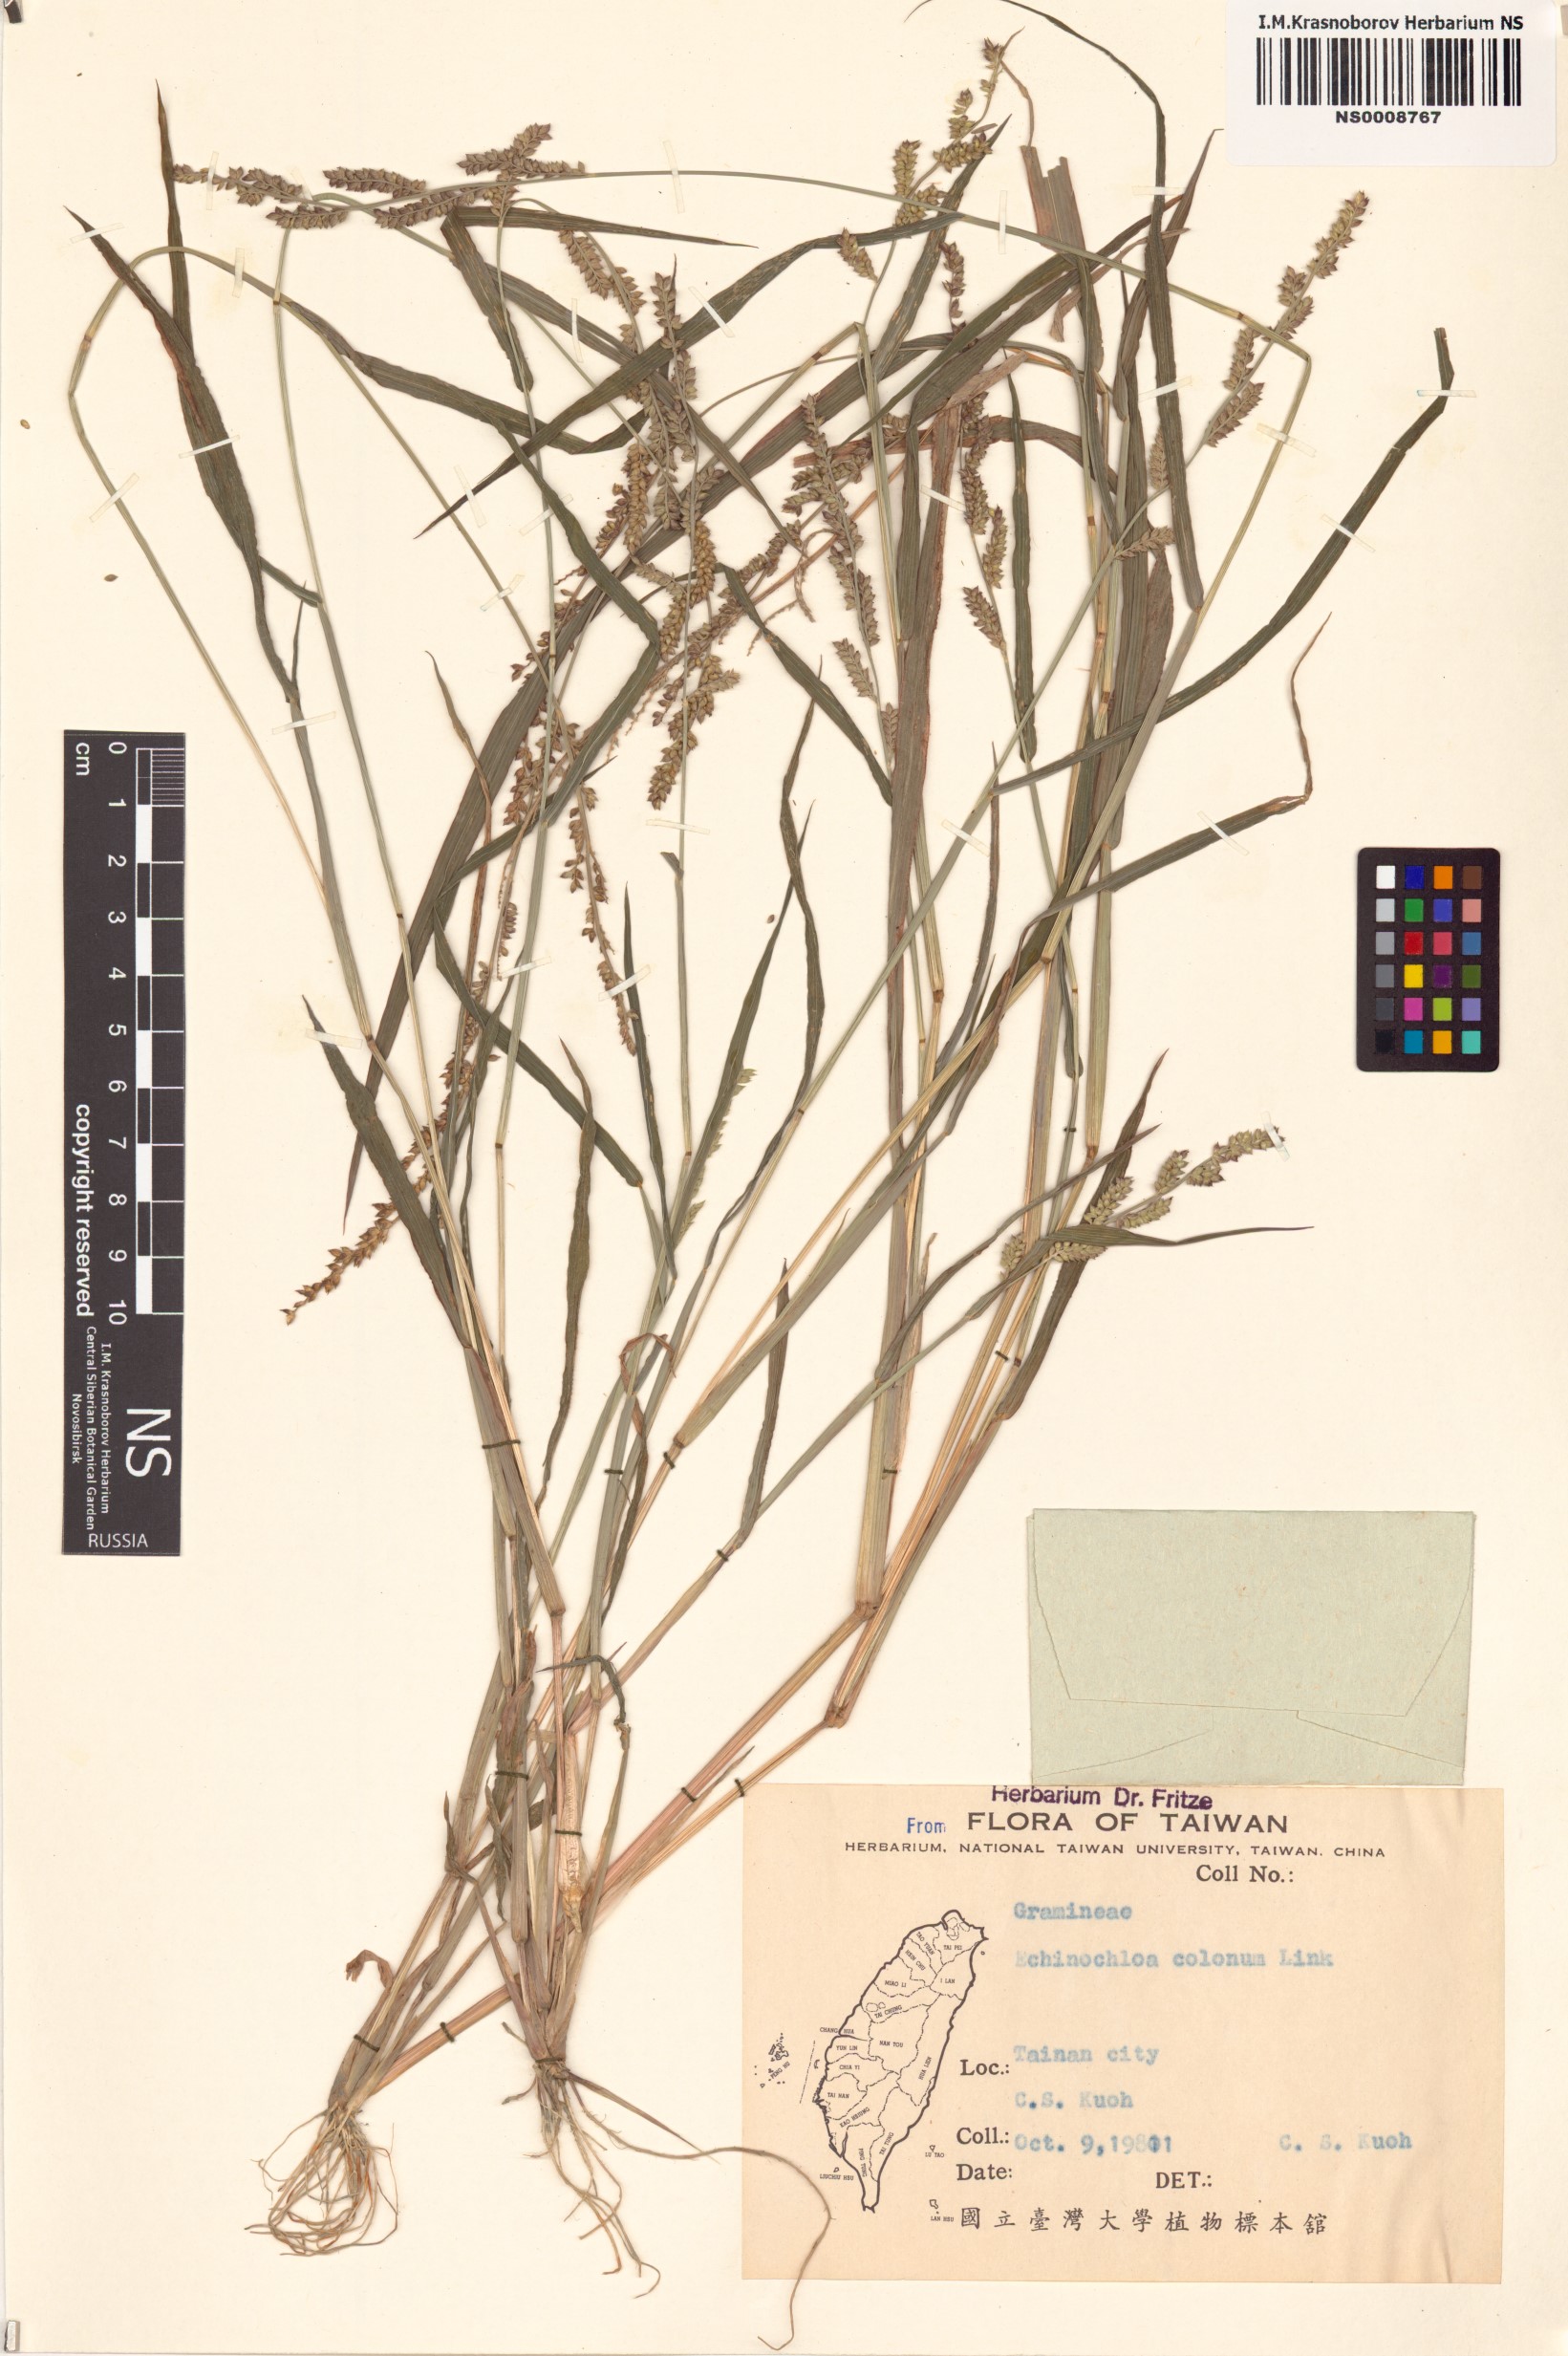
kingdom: Plantae
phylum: Tracheophyta
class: Liliopsida
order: Poales
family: Poaceae
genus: Echinochloa
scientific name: Echinochloa colonum
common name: Jungle rice
